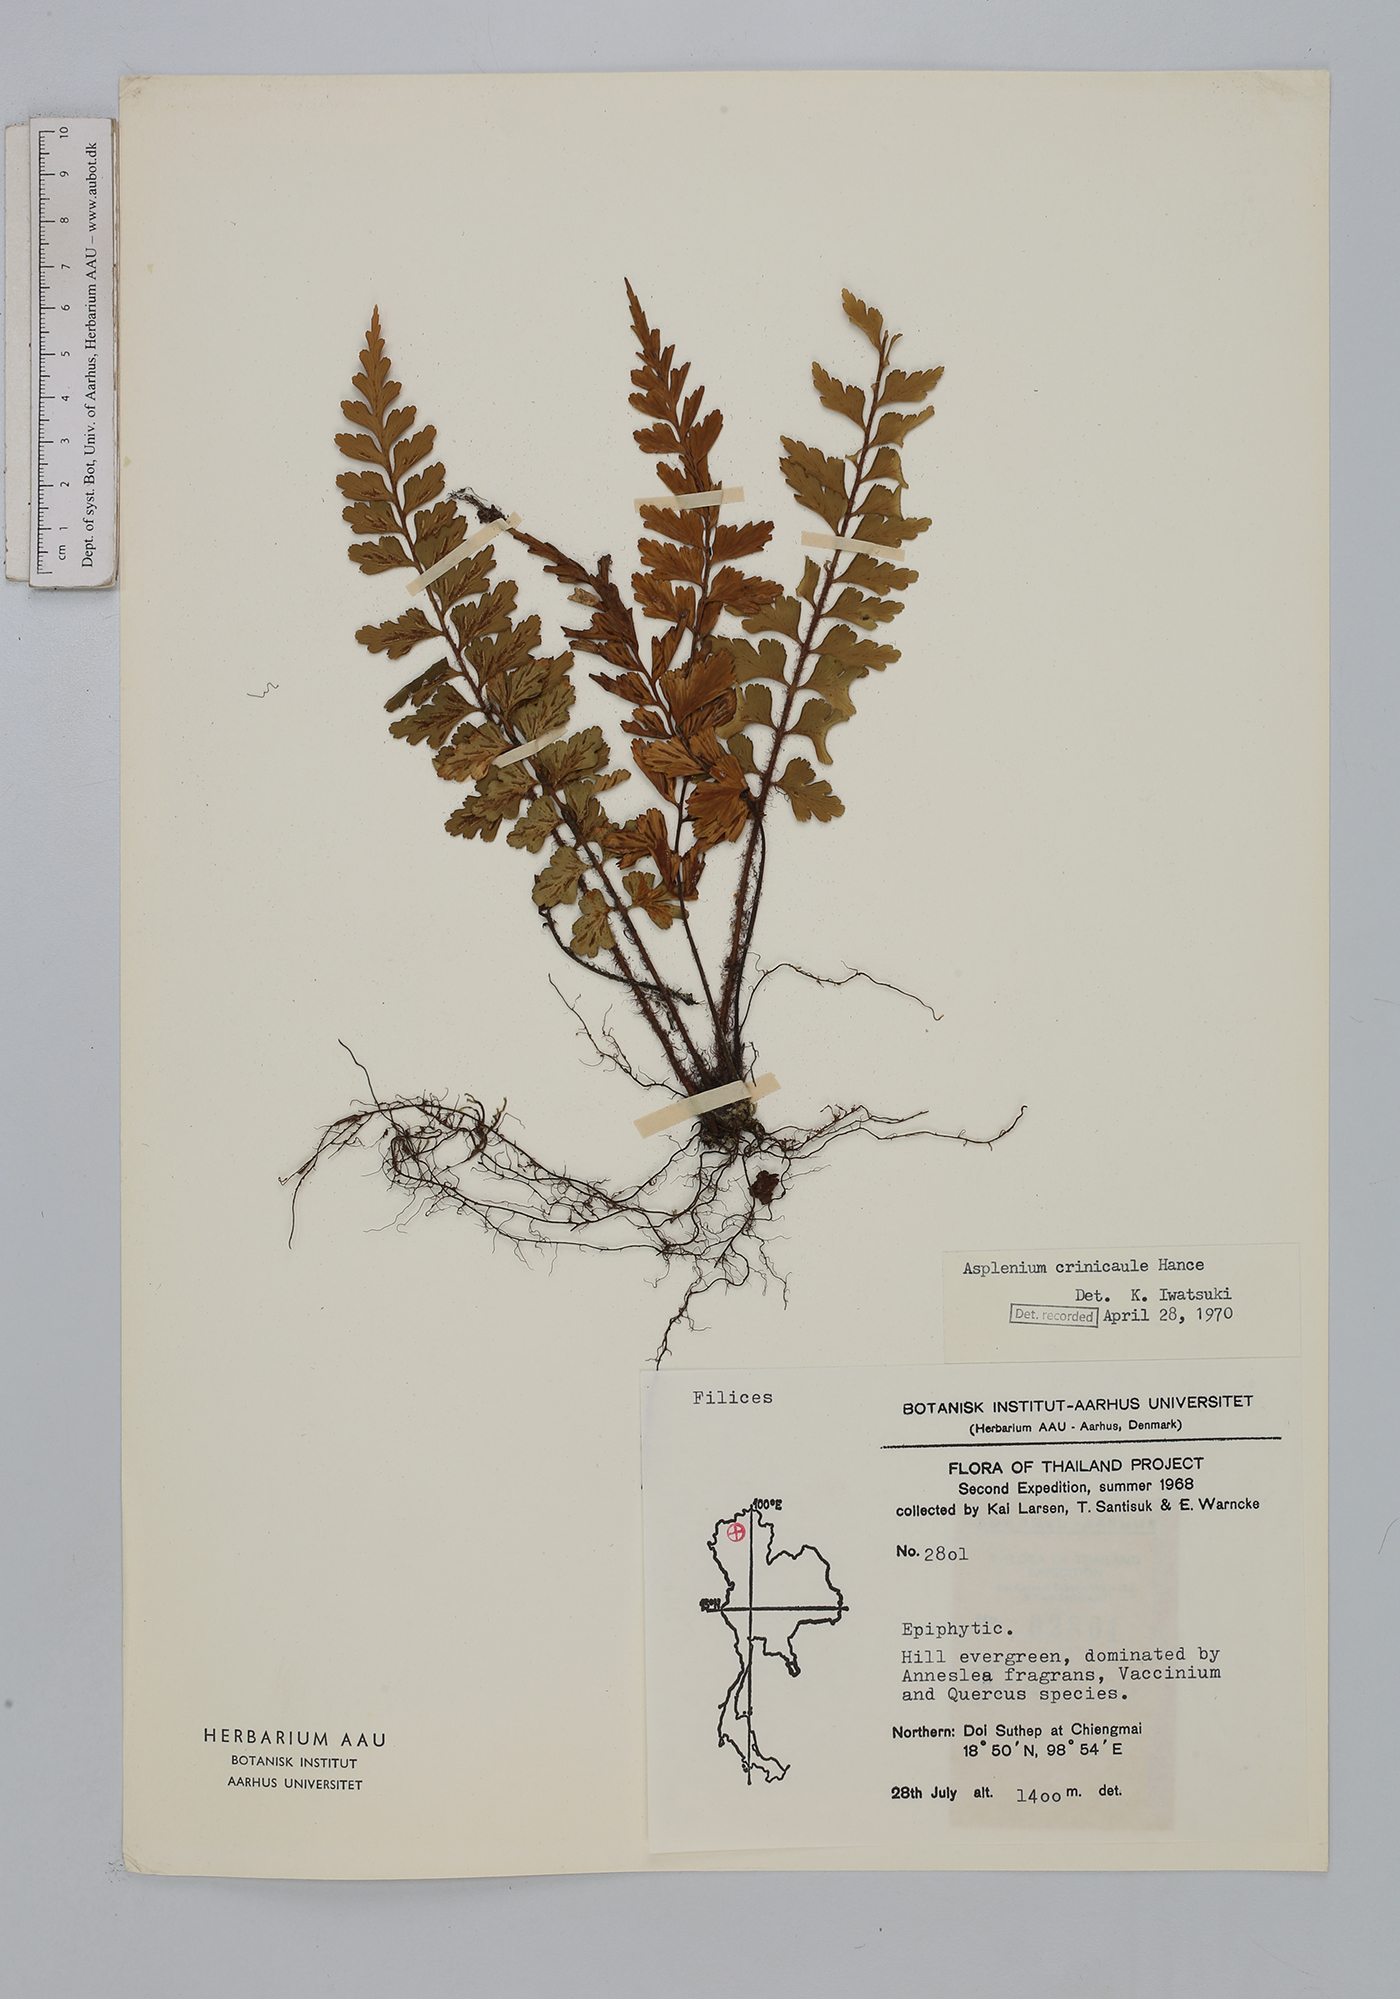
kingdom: Plantae
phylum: Tracheophyta
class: Polypodiopsida
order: Polypodiales
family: Aspleniaceae
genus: Asplenium
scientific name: Asplenium crinicaule
